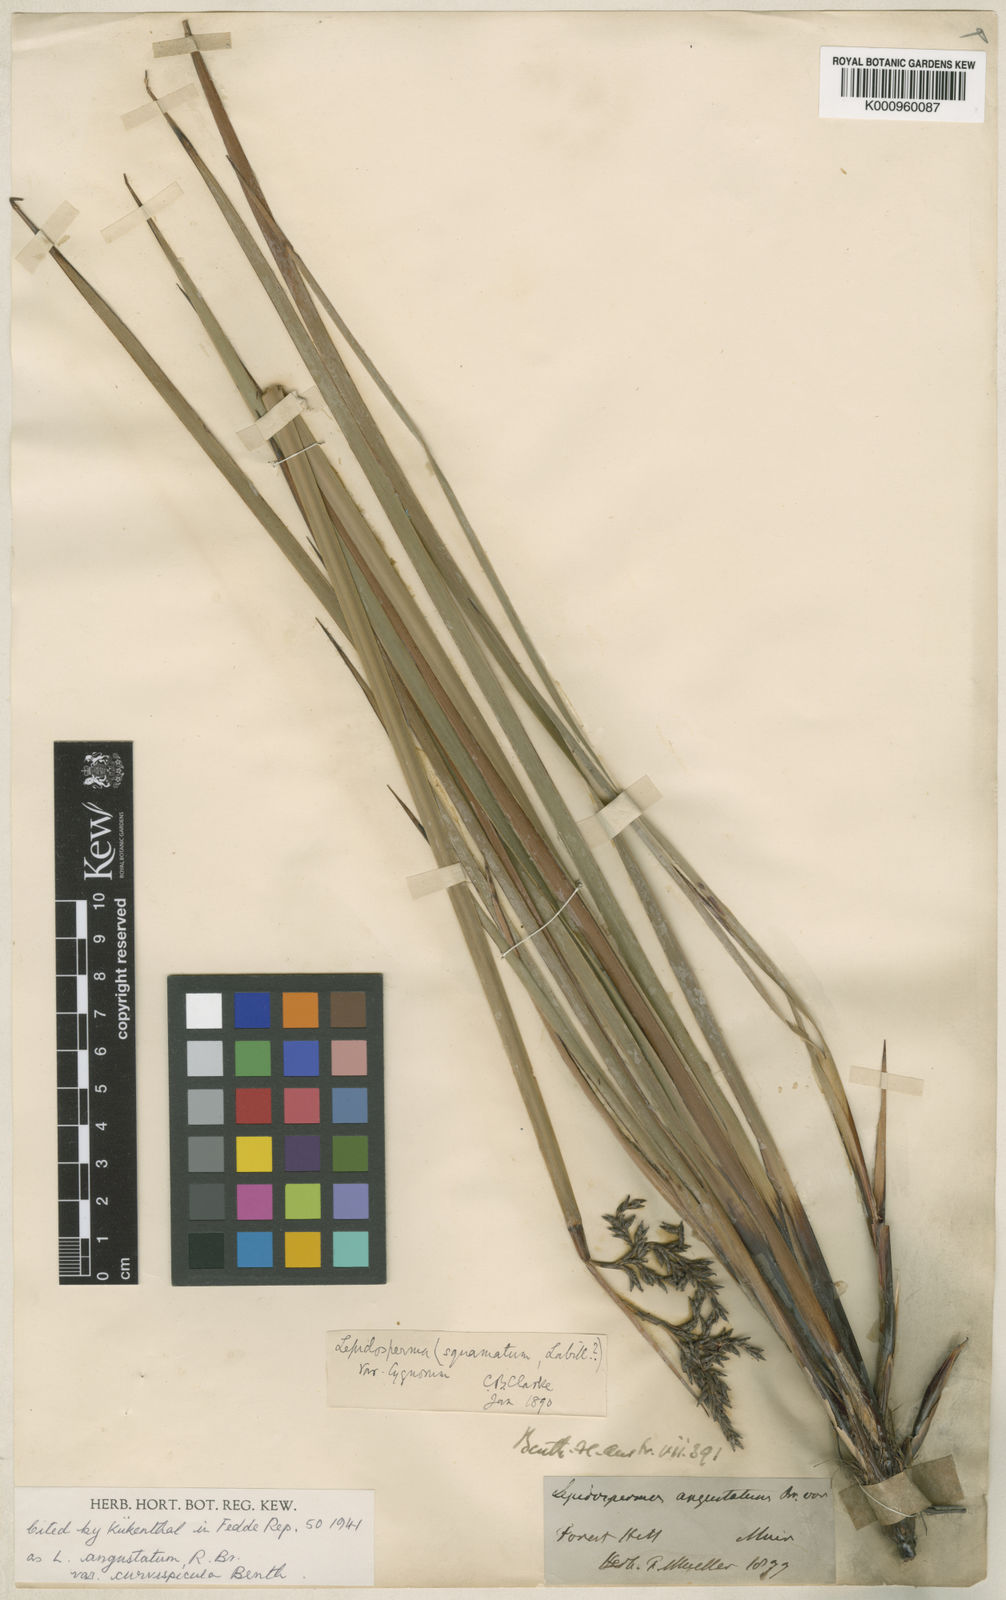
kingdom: Plantae
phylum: Tracheophyta
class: Liliopsida
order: Poales
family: Cyperaceae
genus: Lepidosperma
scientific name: Lepidosperma angustatum
